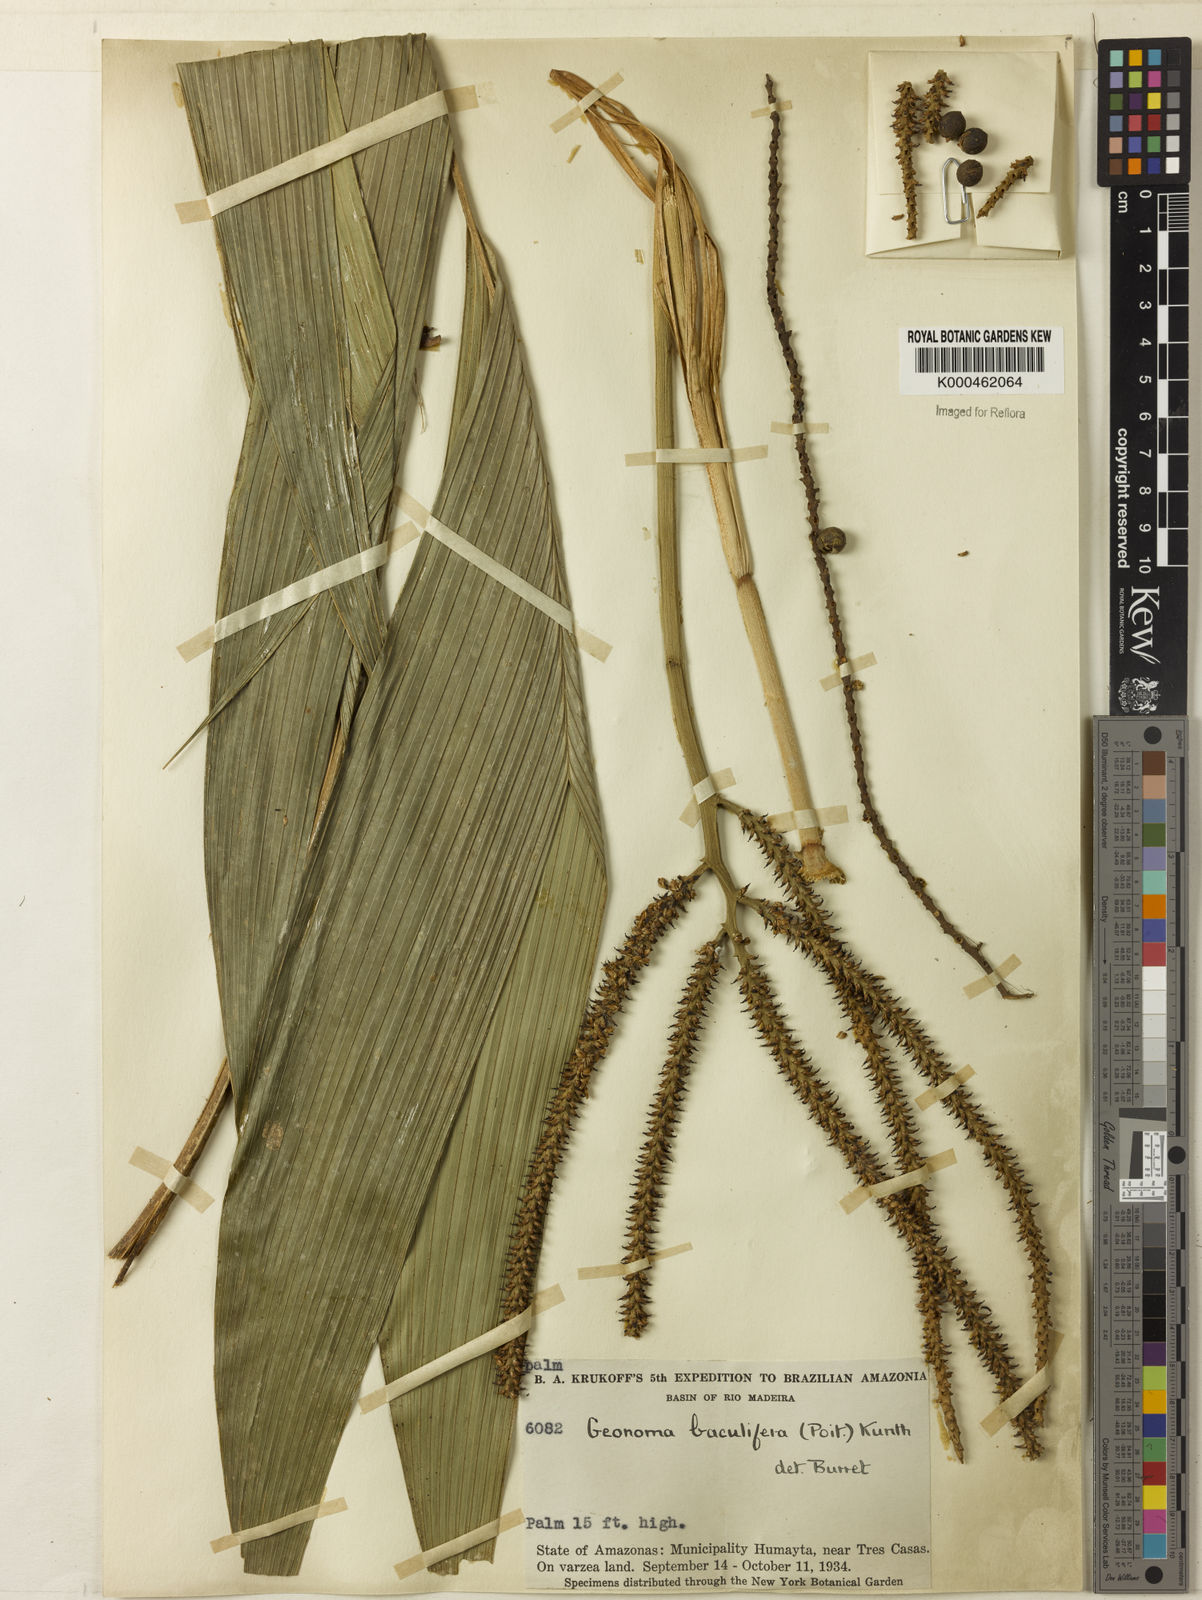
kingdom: Plantae
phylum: Tracheophyta
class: Liliopsida
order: Arecales
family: Arecaceae
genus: Geonoma
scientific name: Geonoma baculifera
